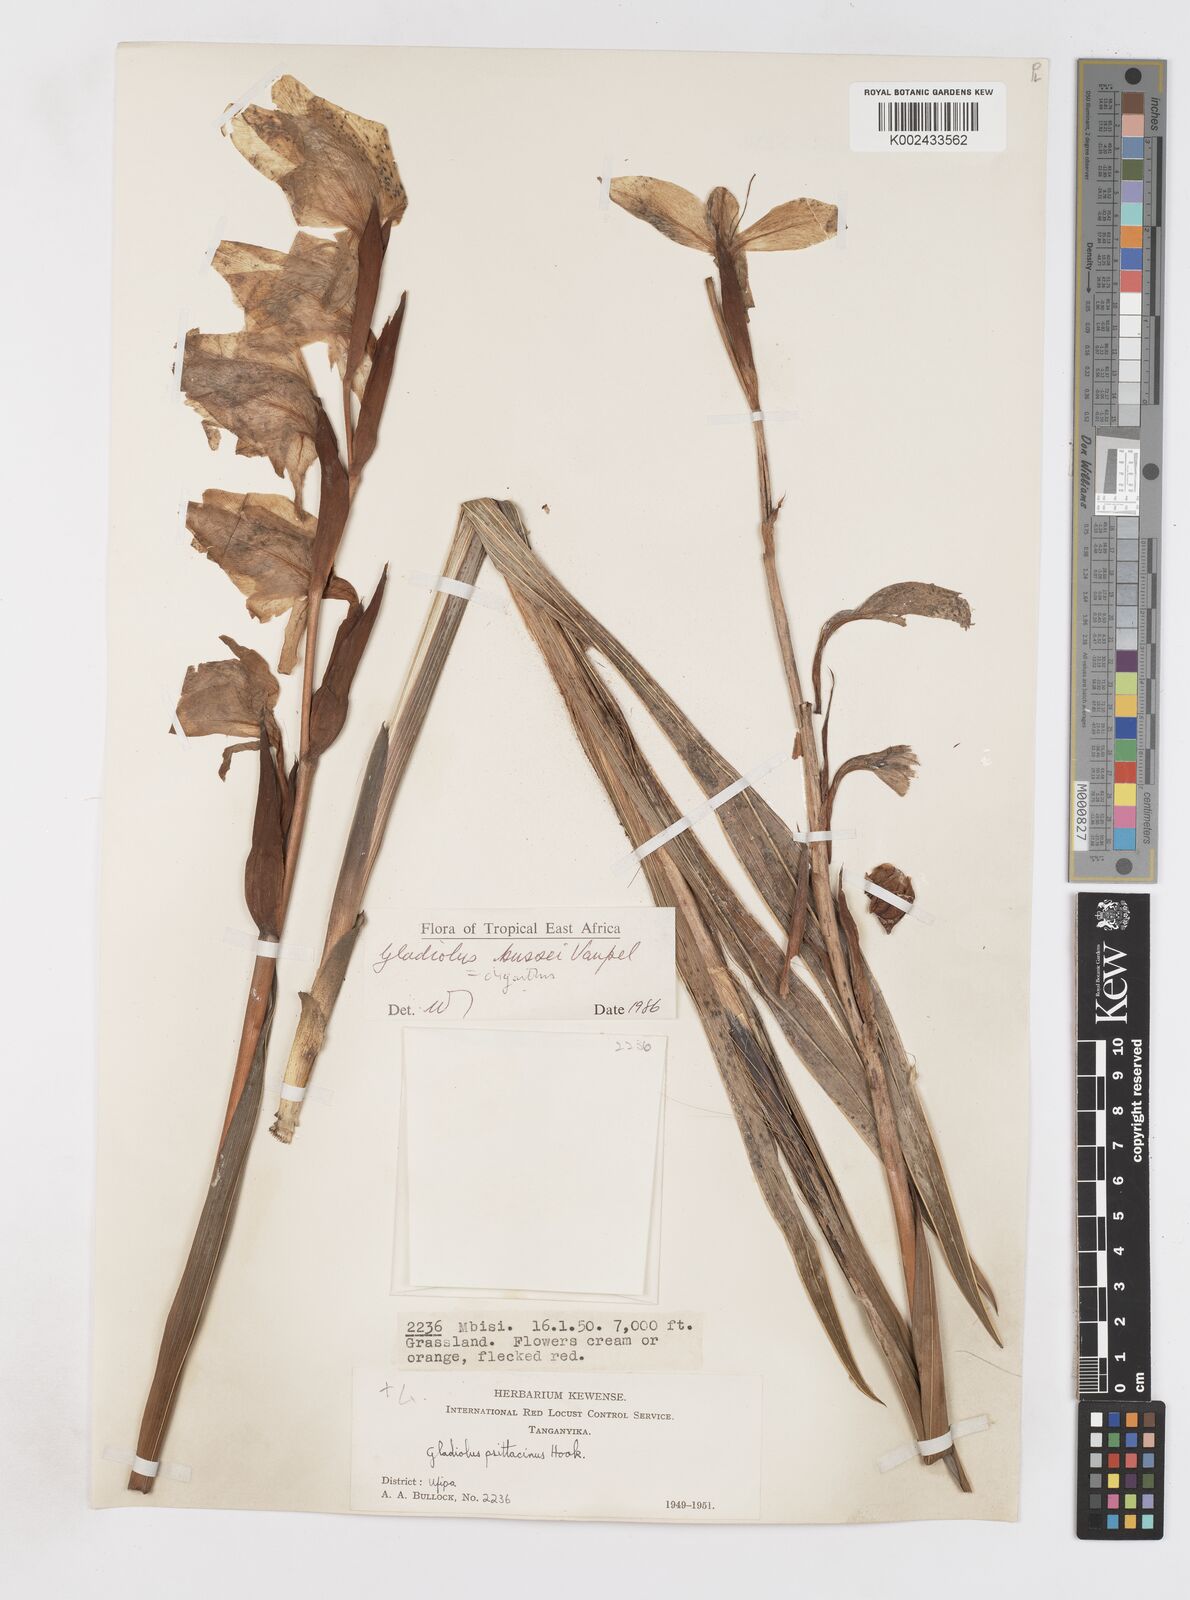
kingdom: Plantae
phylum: Tracheophyta
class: Liliopsida
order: Asparagales
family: Iridaceae
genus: Gladiolus
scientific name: Gladiolus oliganthus
